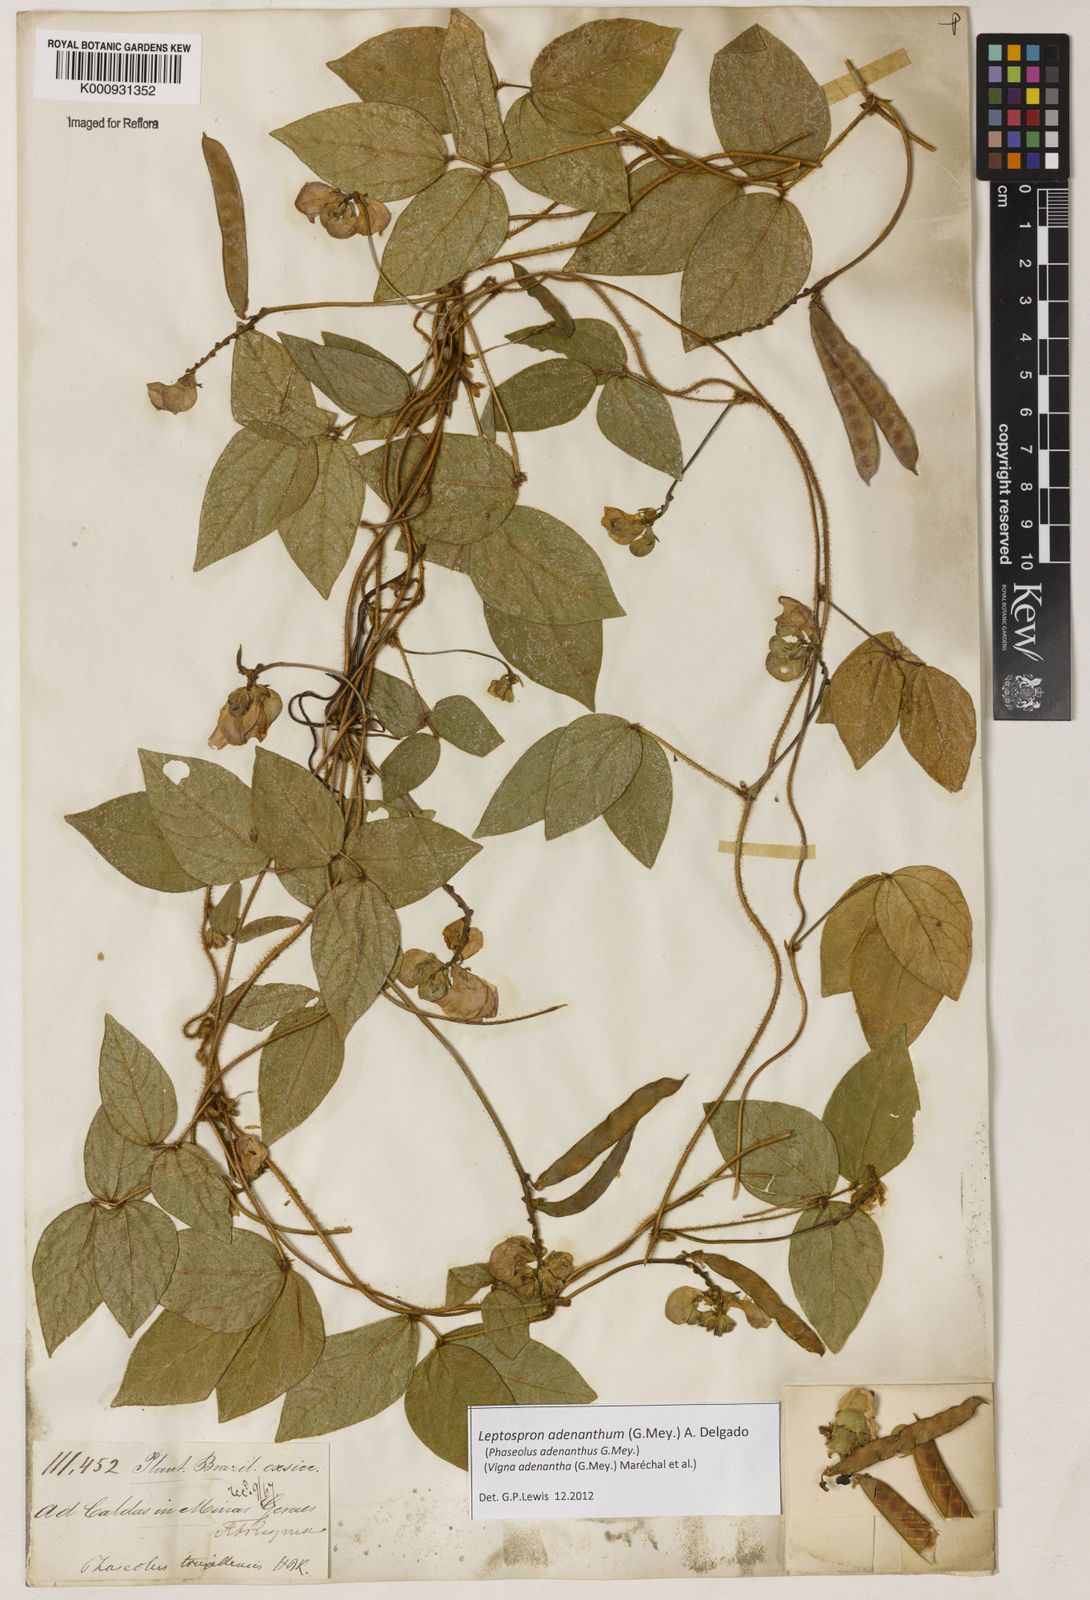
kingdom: Plantae
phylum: Tracheophyta
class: Magnoliopsida
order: Fabales
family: Fabaceae
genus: Leptospron
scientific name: Leptospron adenanthum
